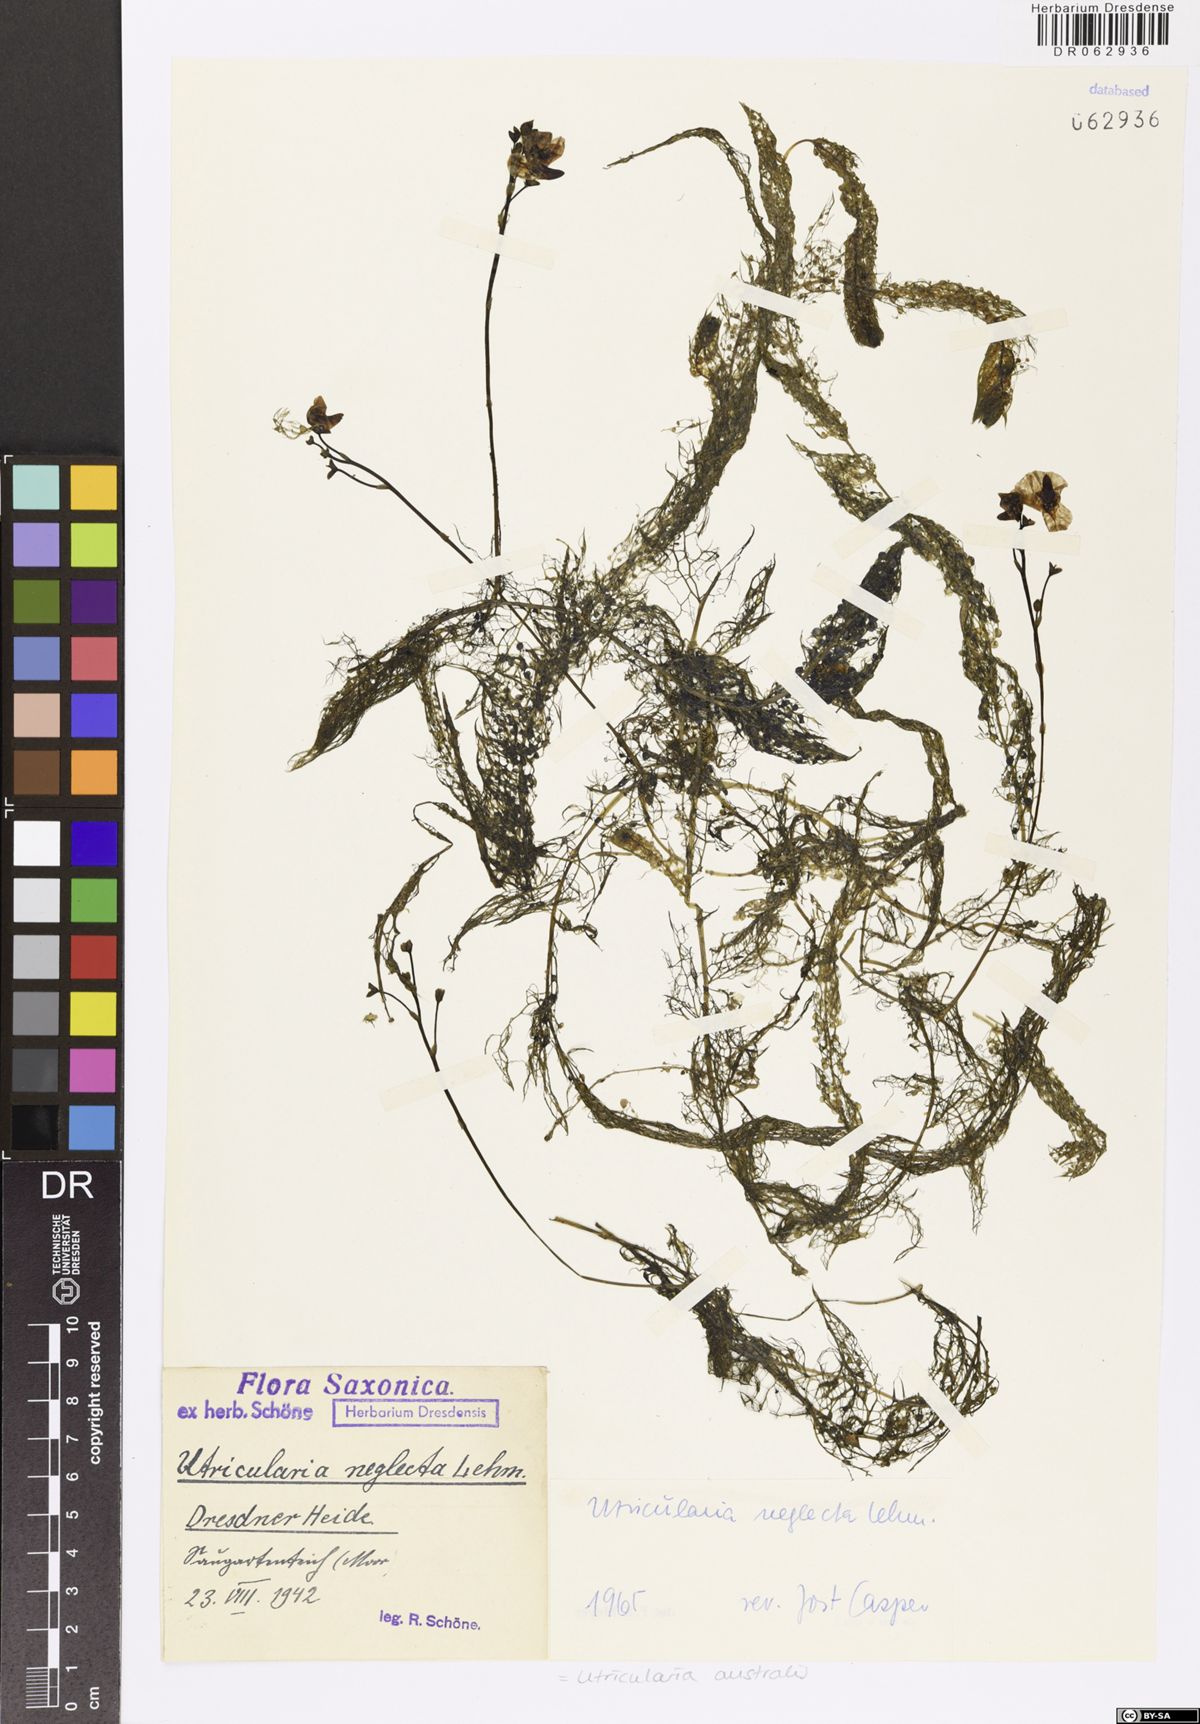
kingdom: Plantae
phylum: Tracheophyta
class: Magnoliopsida
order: Lamiales
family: Lentibulariaceae
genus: Utricularia
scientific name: Utricularia australis
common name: Bladderwort
